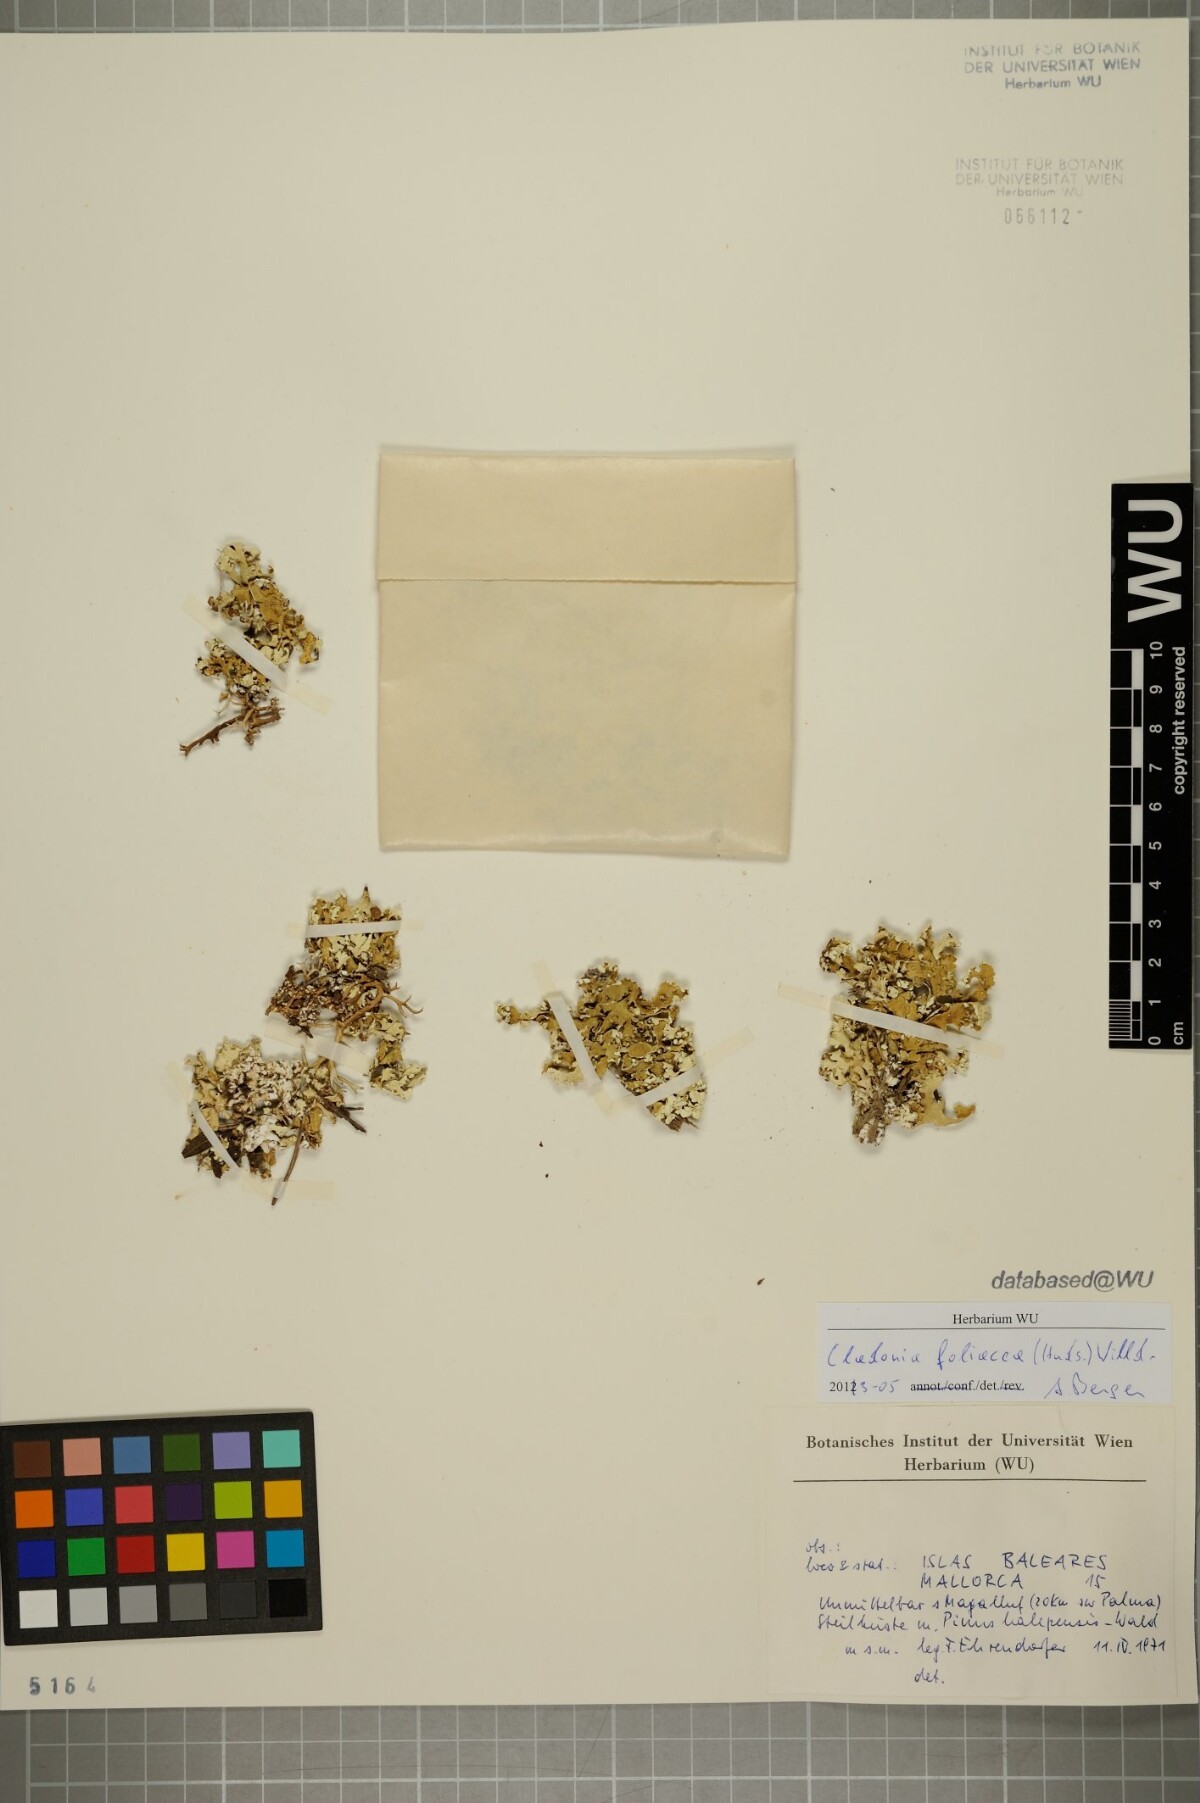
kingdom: Fungi
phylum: Ascomycota
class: Lecanoromycetes
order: Lecanorales
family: Cladoniaceae
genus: Cladonia
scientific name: Cladonia foliacea
